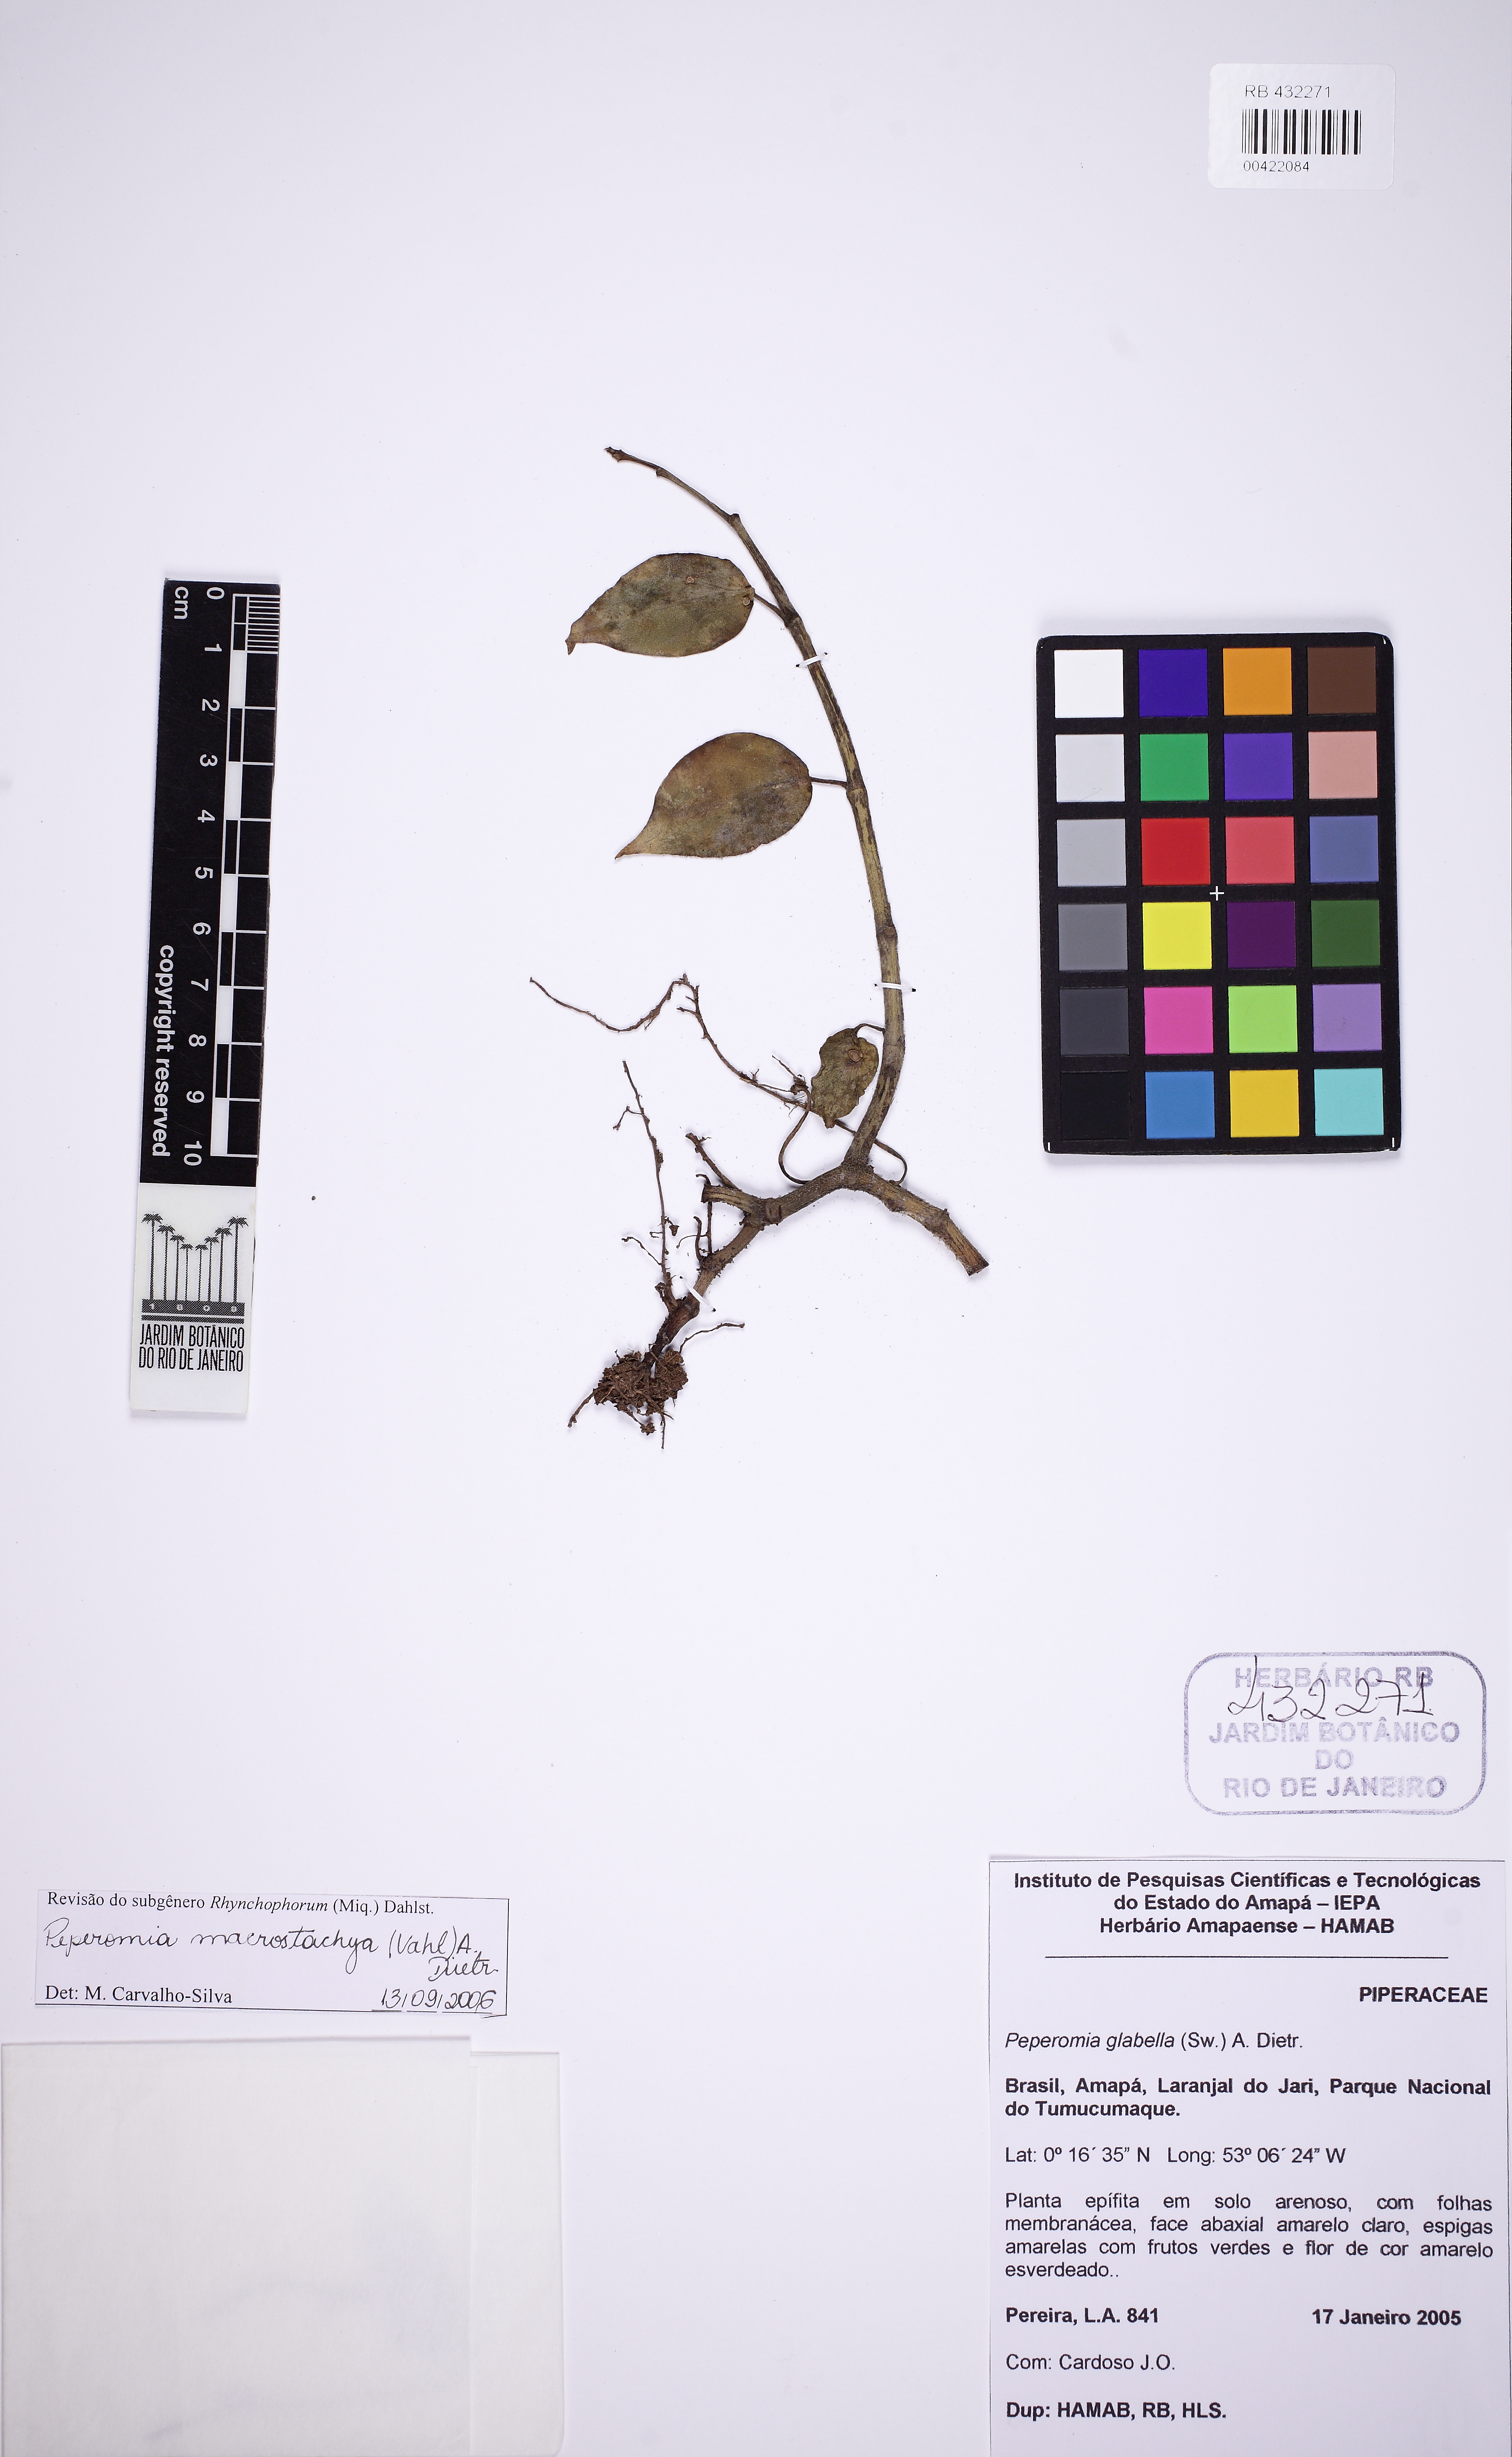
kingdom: Plantae
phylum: Tracheophyta
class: Magnoliopsida
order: Piperales
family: Piperaceae
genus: Peperomia
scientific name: Peperomia macrostachyos
